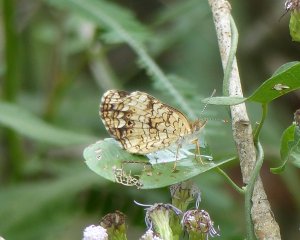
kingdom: Animalia
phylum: Arthropoda
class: Insecta
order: Lepidoptera
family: Nymphalidae
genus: Phyciodes
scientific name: Phyciodes phaon
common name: Phaon Crescent
